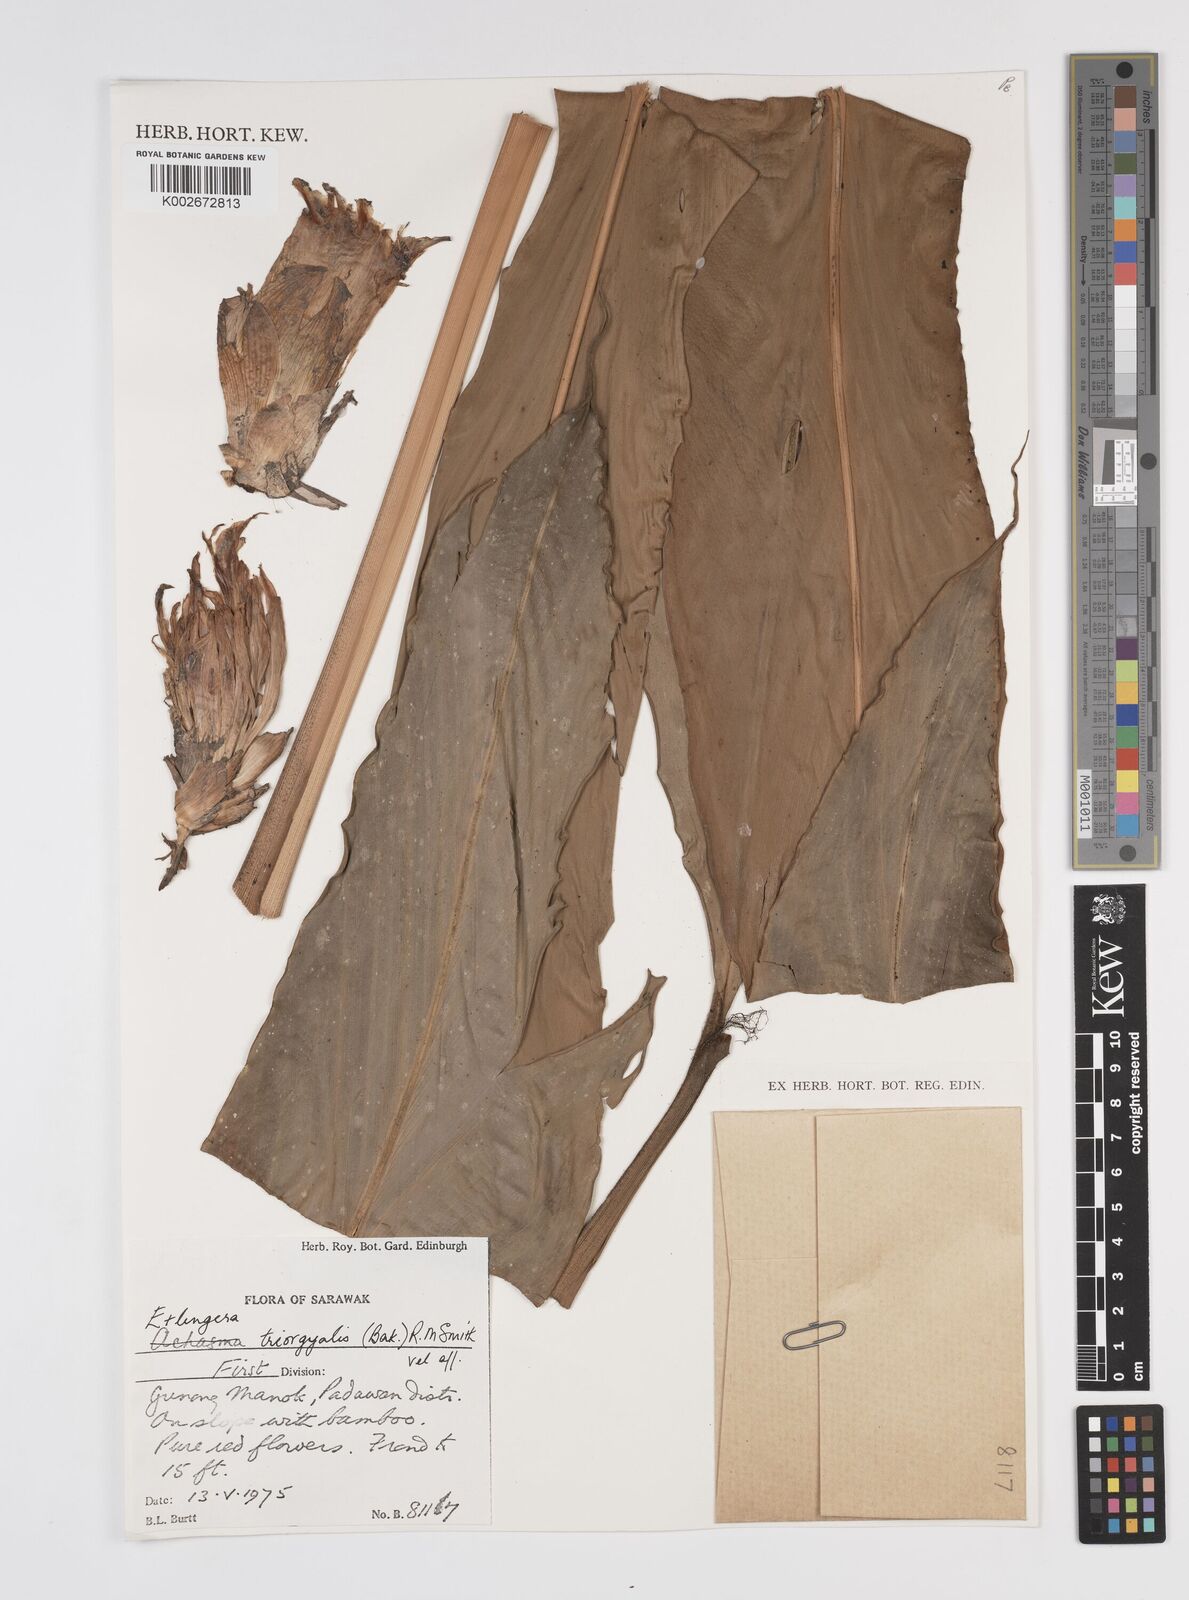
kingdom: Plantae
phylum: Tracheophyta
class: Liliopsida
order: Zingiberales
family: Zingiberaceae
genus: Etlingera
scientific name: Etlingera triorgyalis
